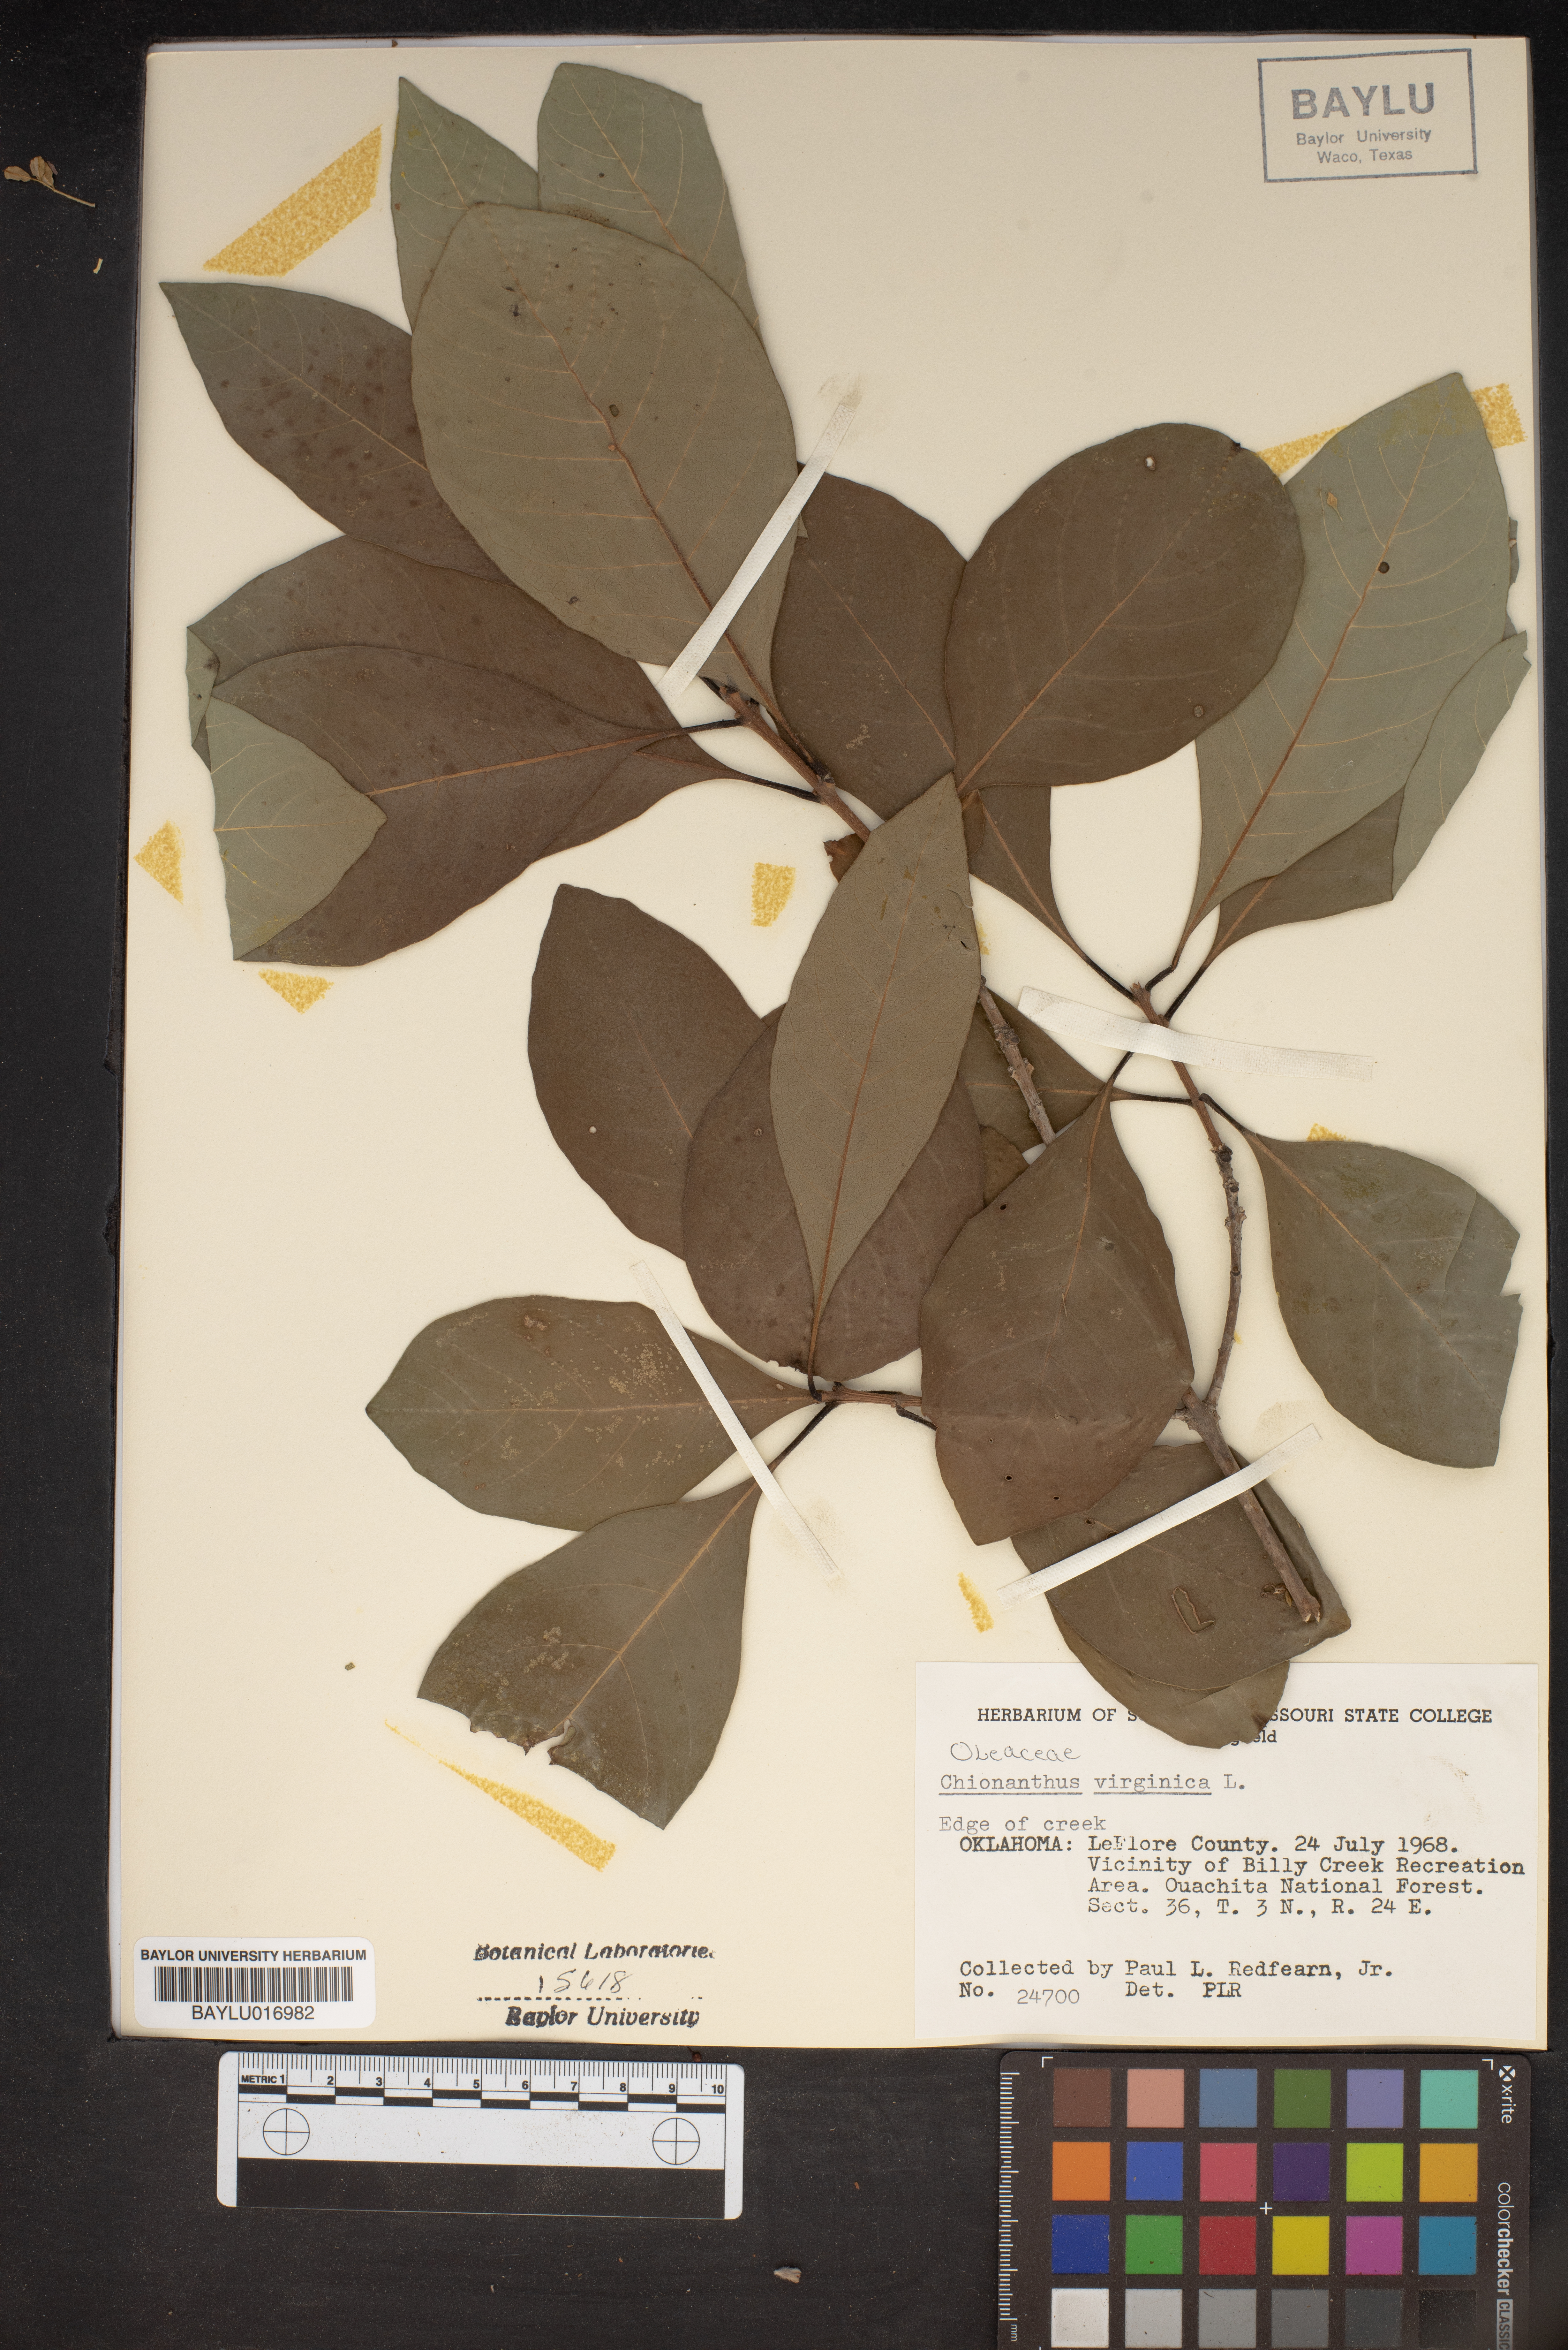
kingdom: Plantae
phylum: Tracheophyta
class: Magnoliopsida
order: Lamiales
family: Oleaceae
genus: Chionanthus
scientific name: Chionanthus virginicus
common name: American fringetree
